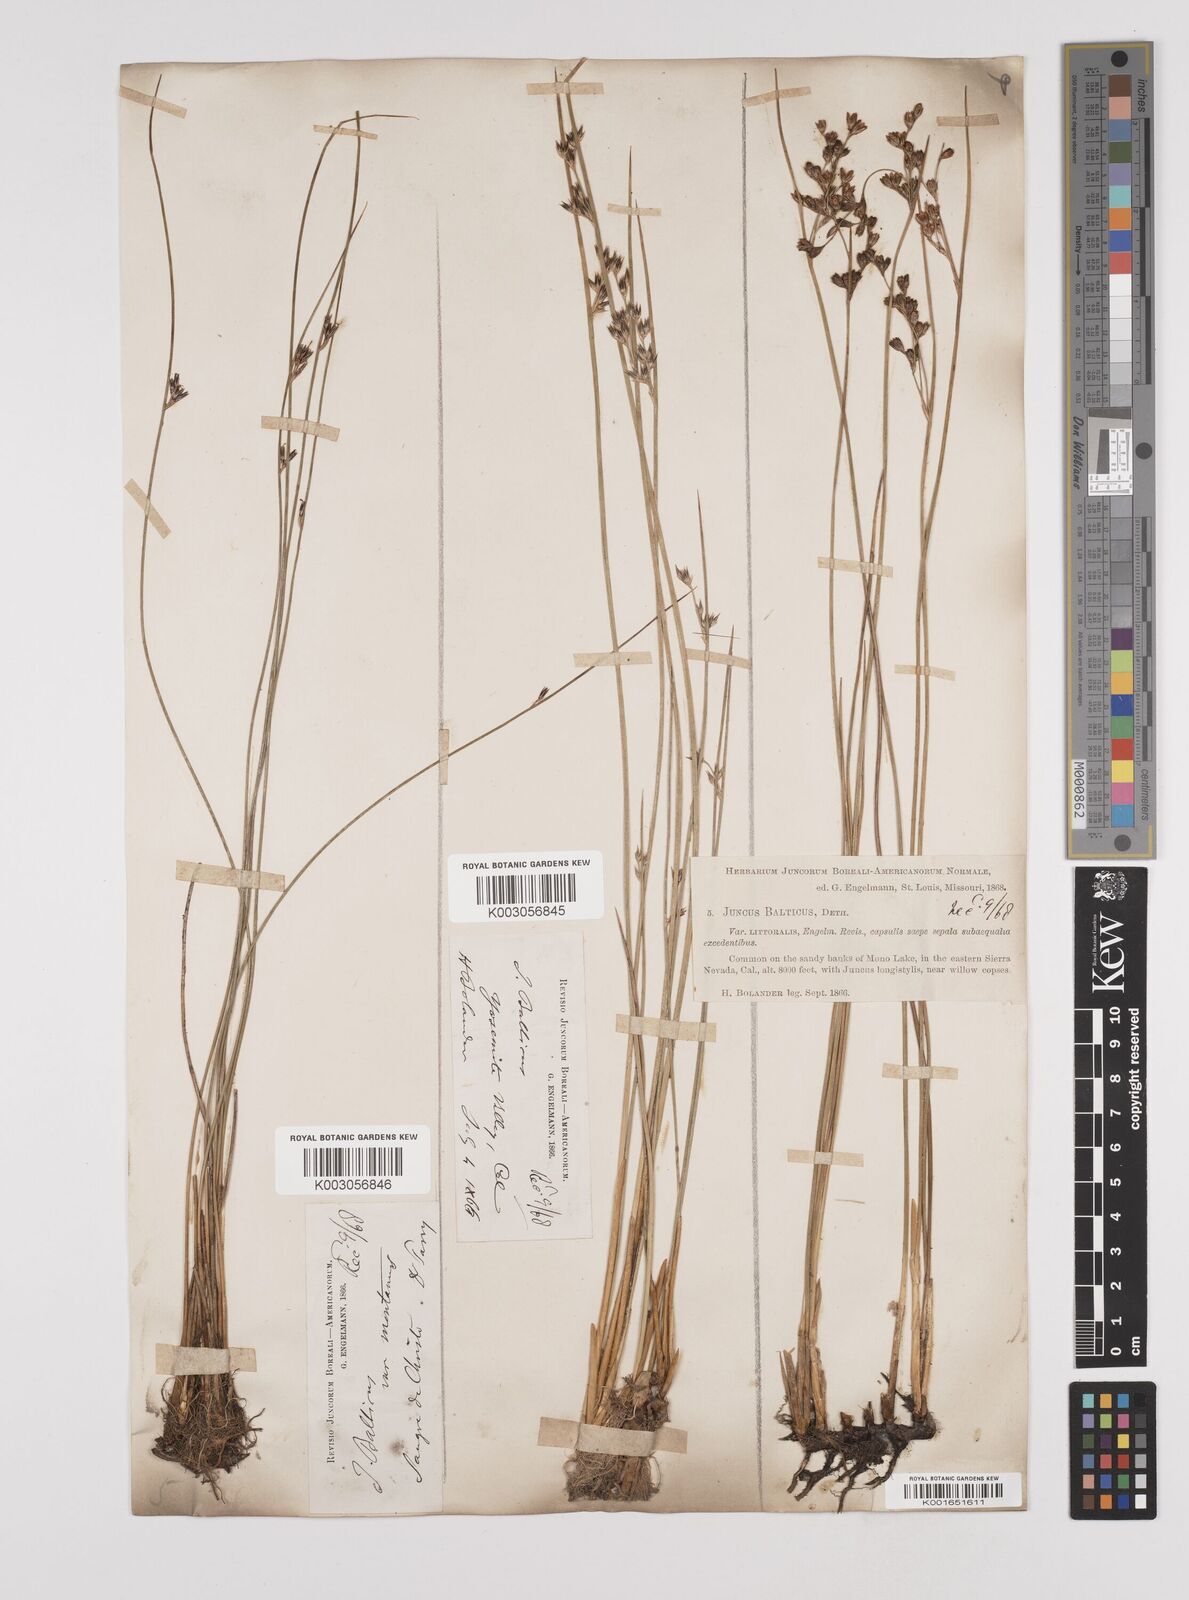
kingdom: Plantae
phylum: Tracheophyta
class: Liliopsida
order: Poales
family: Juncaceae
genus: Juncus
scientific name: Juncus balticus
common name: Baltic rush
